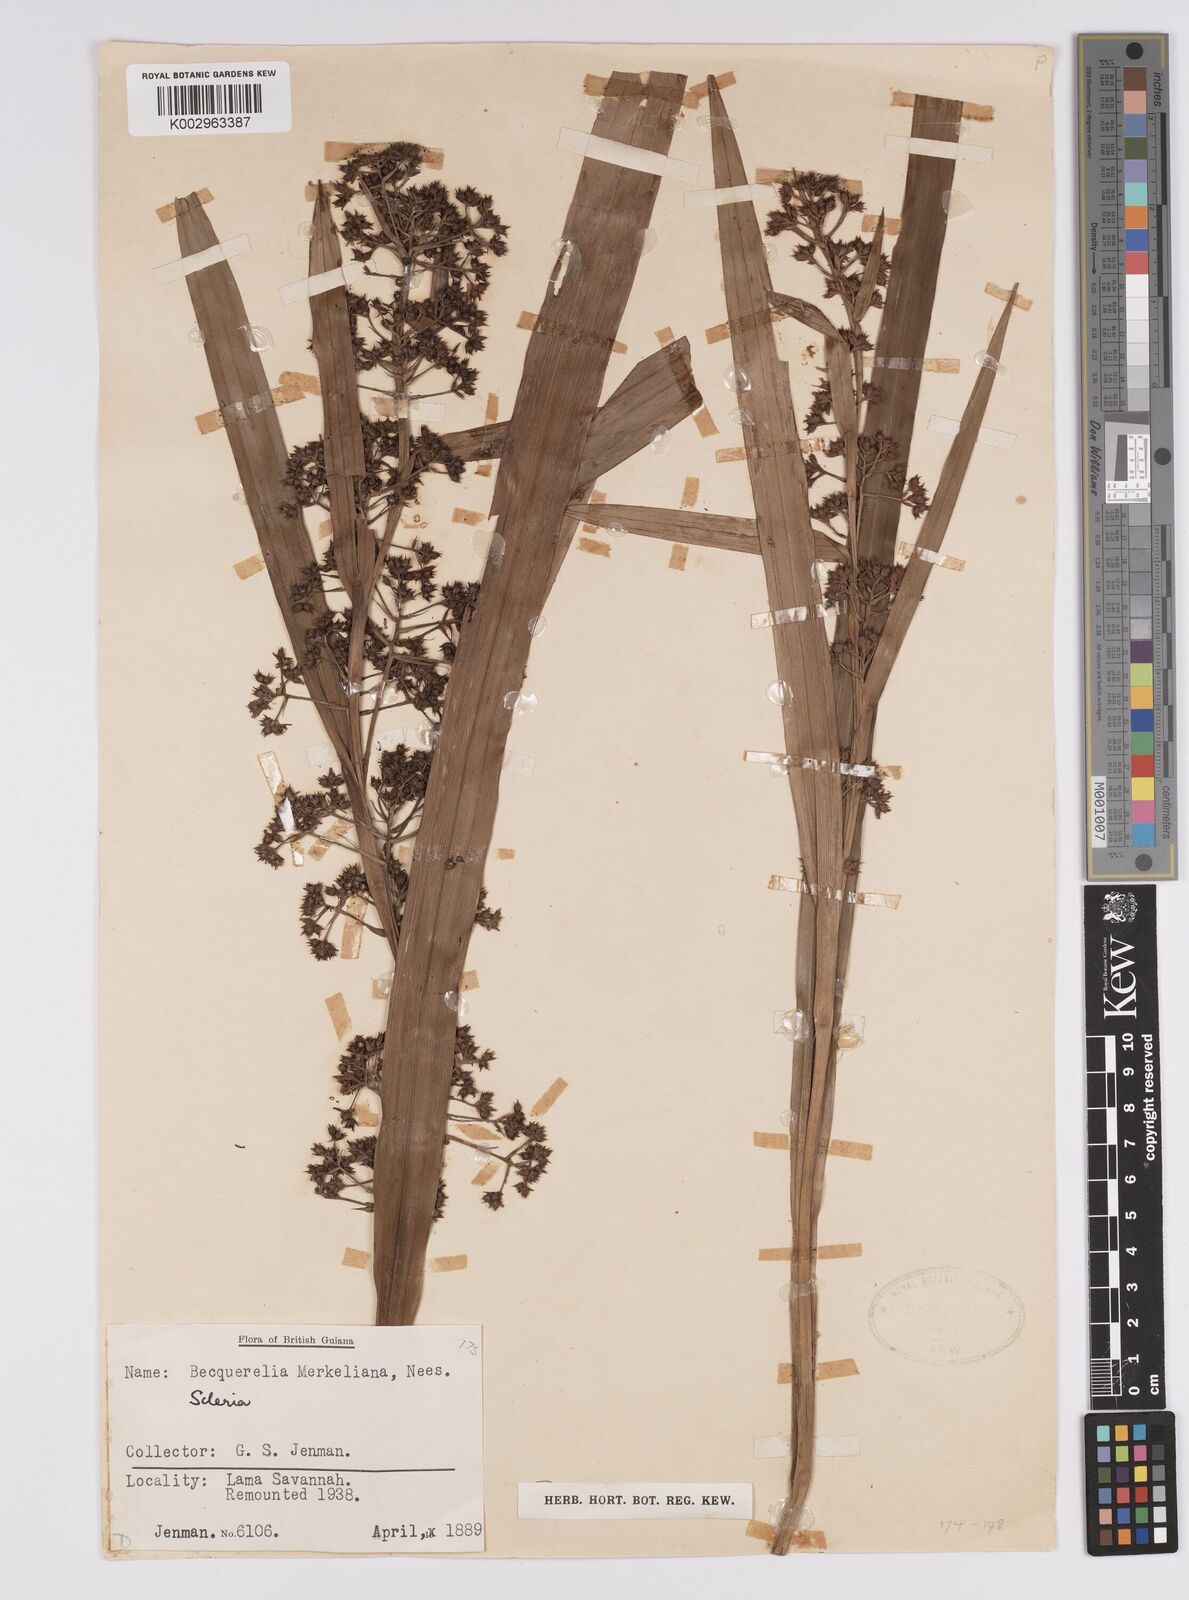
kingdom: Plantae
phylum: Tracheophyta
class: Liliopsida
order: Poales
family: Cyperaceae
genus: Becquerelia
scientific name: Becquerelia merkeliana
